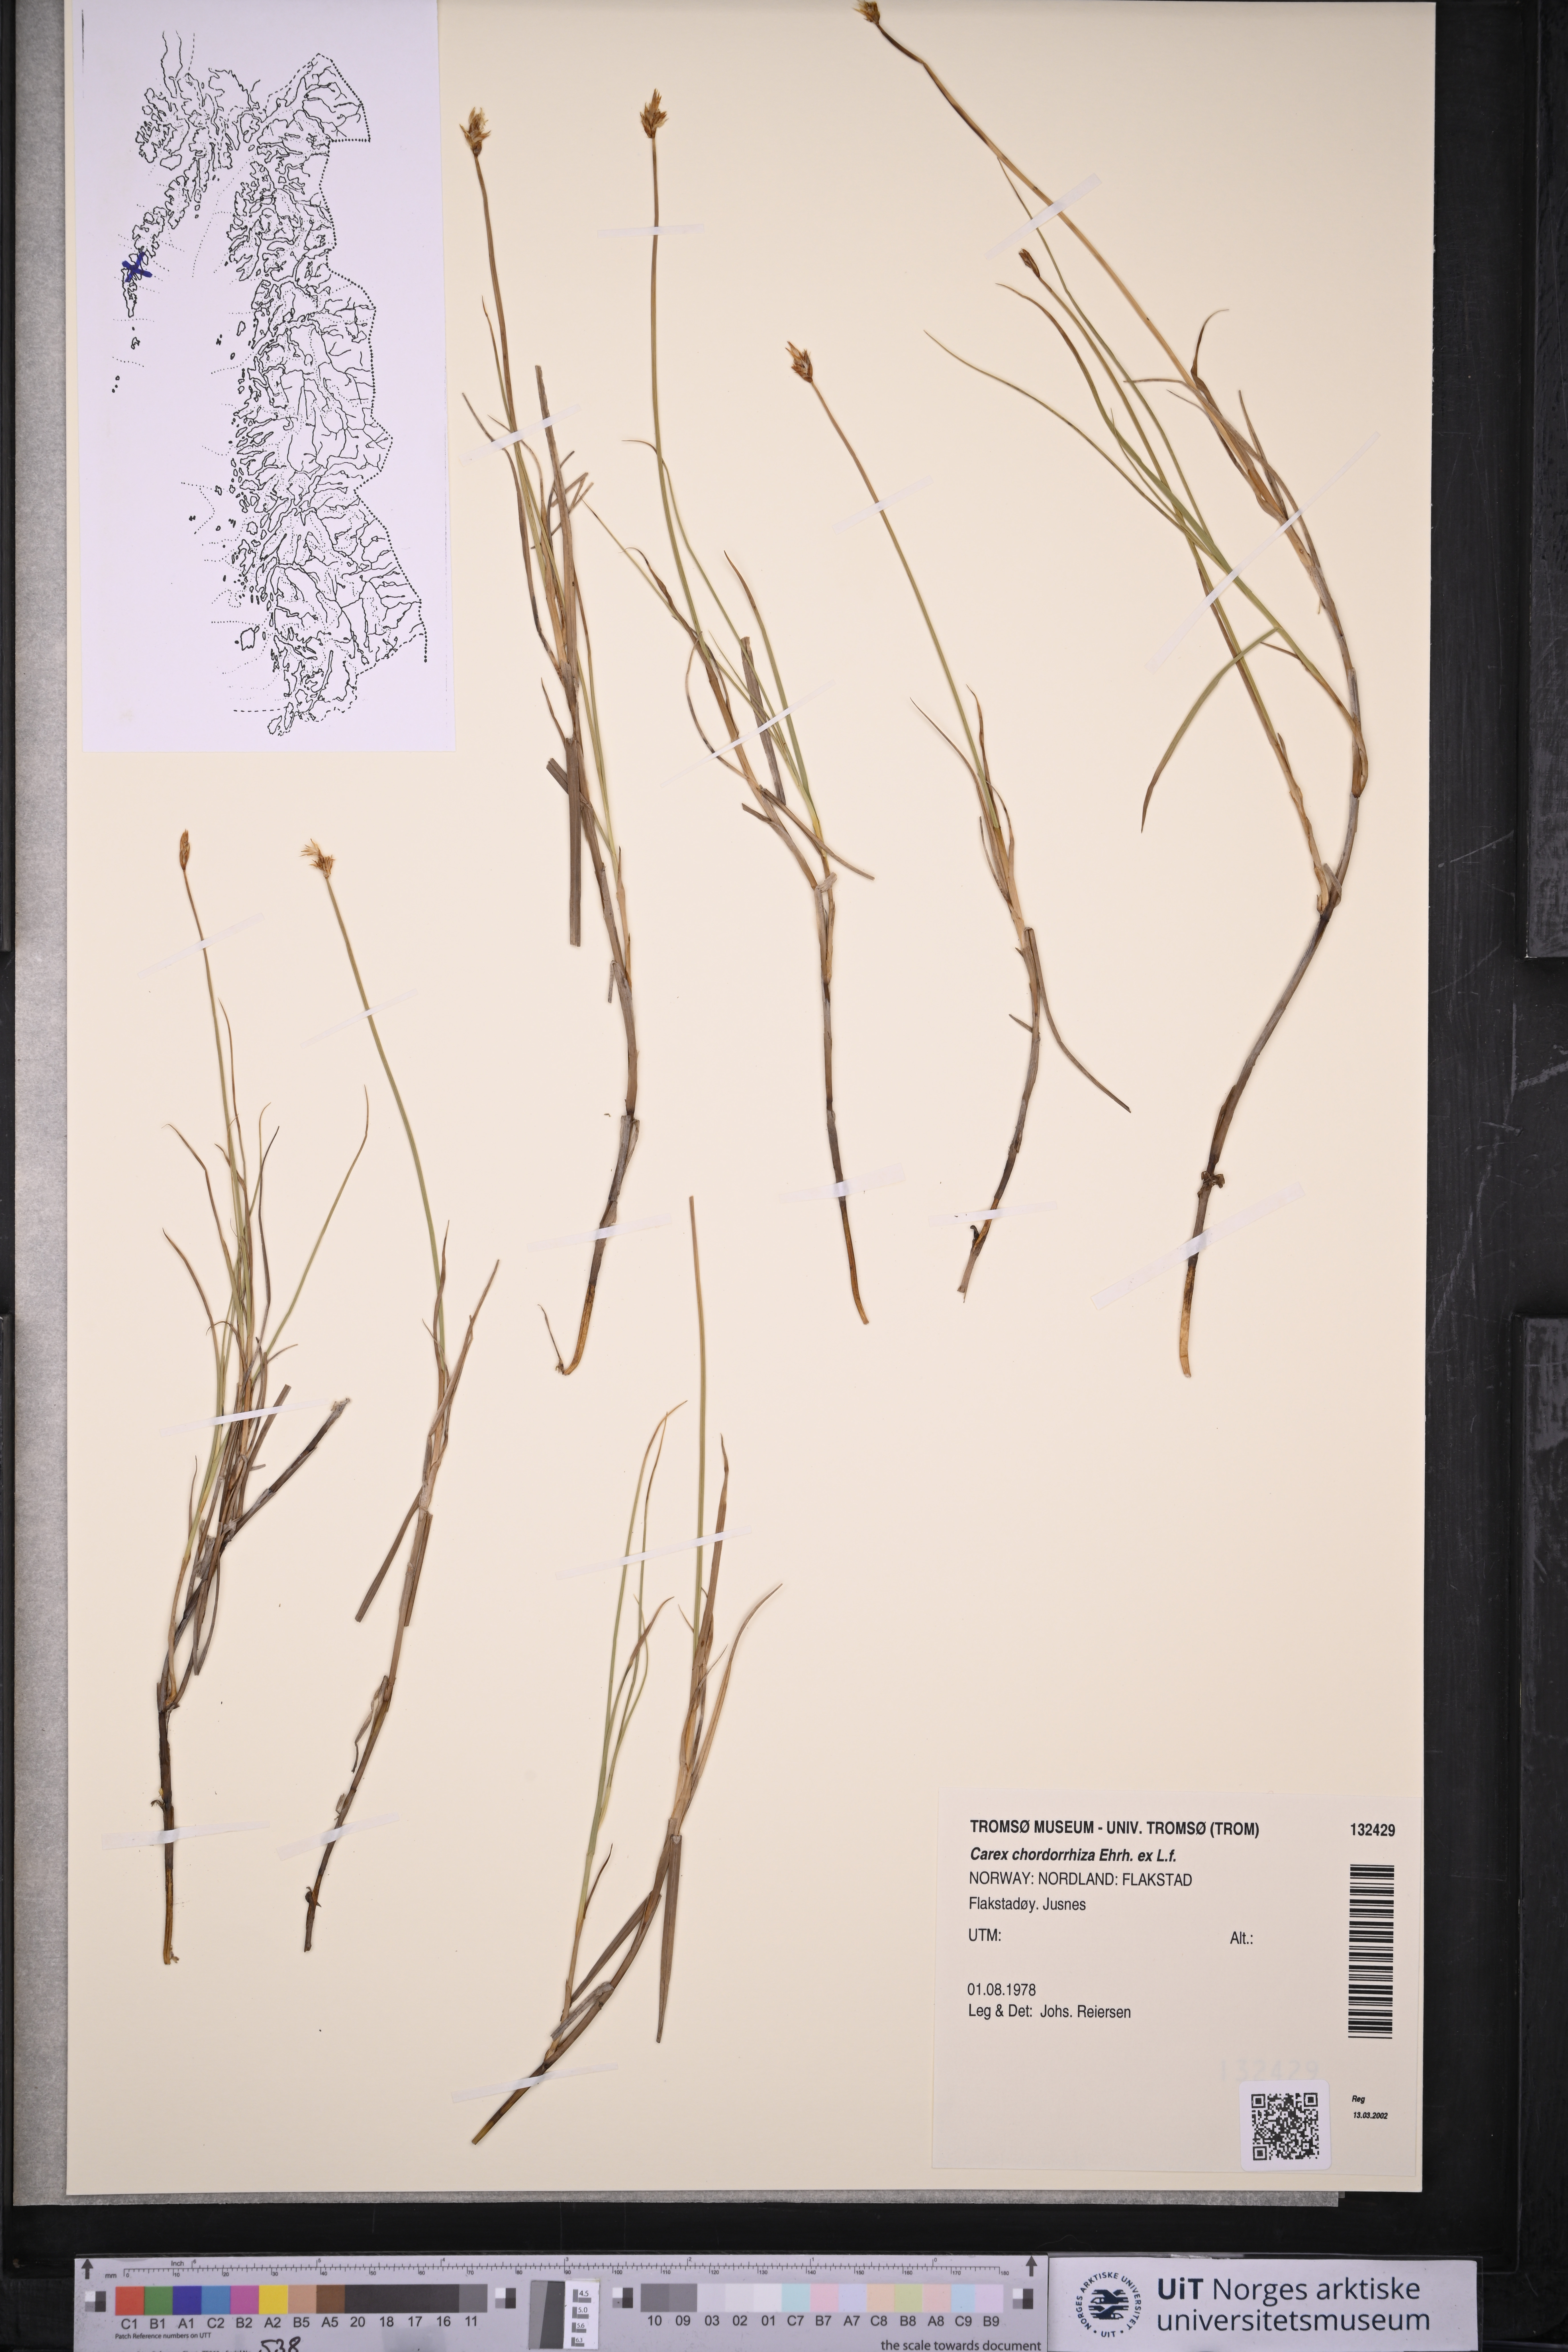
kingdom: Plantae
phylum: Tracheophyta
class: Liliopsida
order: Poales
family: Cyperaceae
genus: Carex
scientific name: Carex chordorrhiza
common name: String sedge
